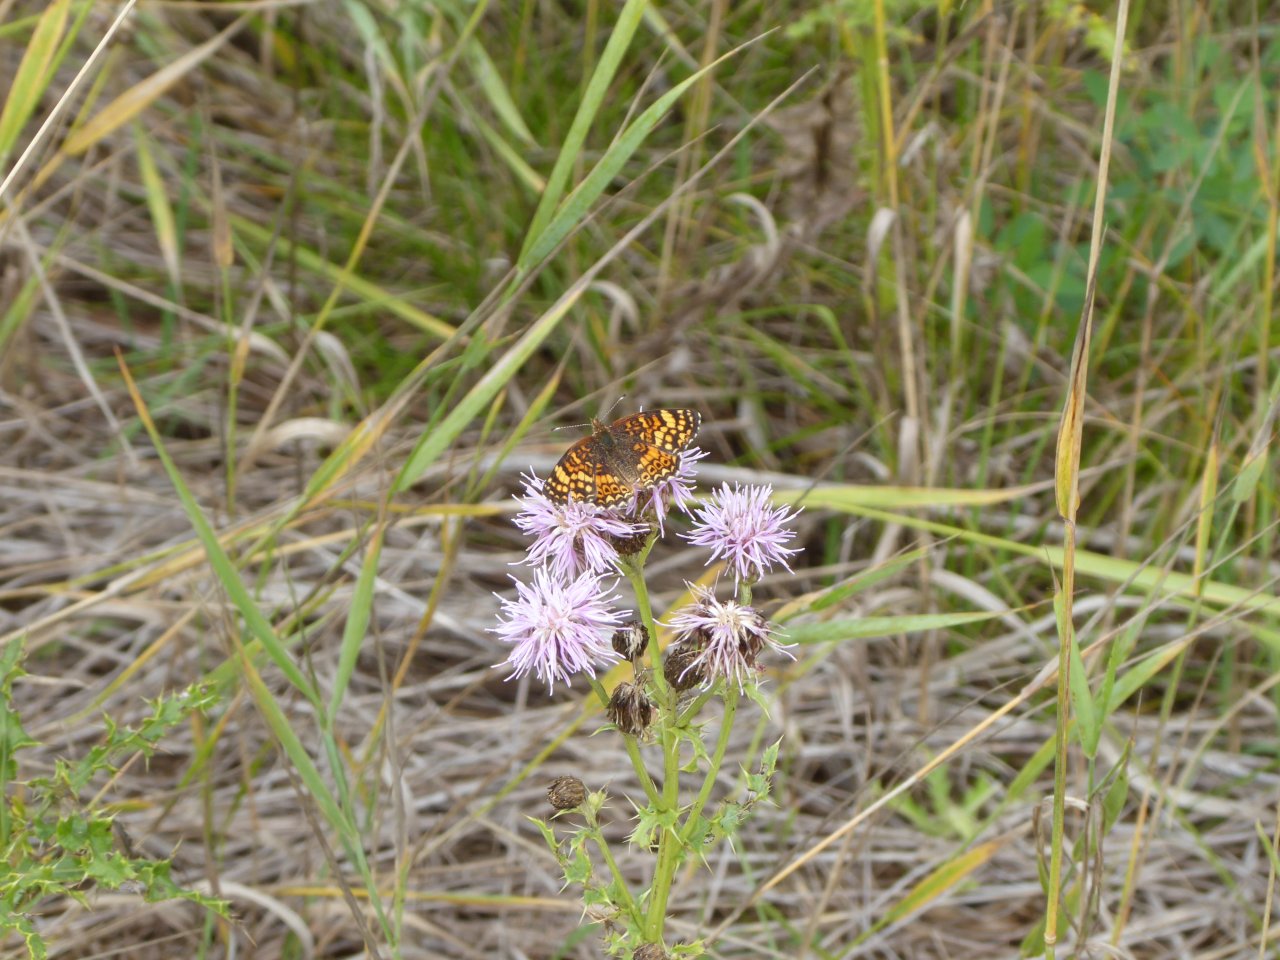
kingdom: Animalia
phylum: Arthropoda
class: Insecta
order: Lepidoptera
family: Nymphalidae
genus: Phyciodes
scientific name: Phyciodes tharos
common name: Field Crescent
